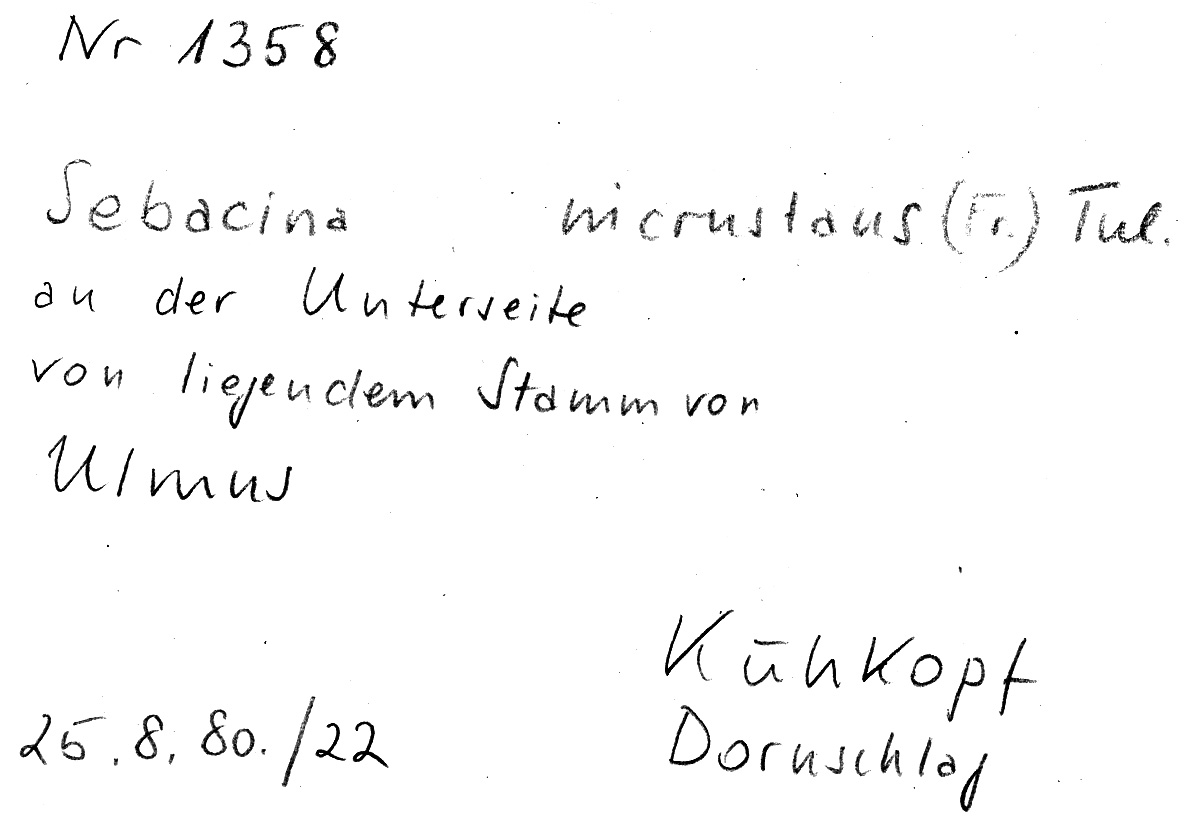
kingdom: Fungi
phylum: Basidiomycota
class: Agaricomycetes
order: Sebacinales
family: Sebacinaceae
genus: Sebacina
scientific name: Sebacina incrustans
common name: Enveloping crust
